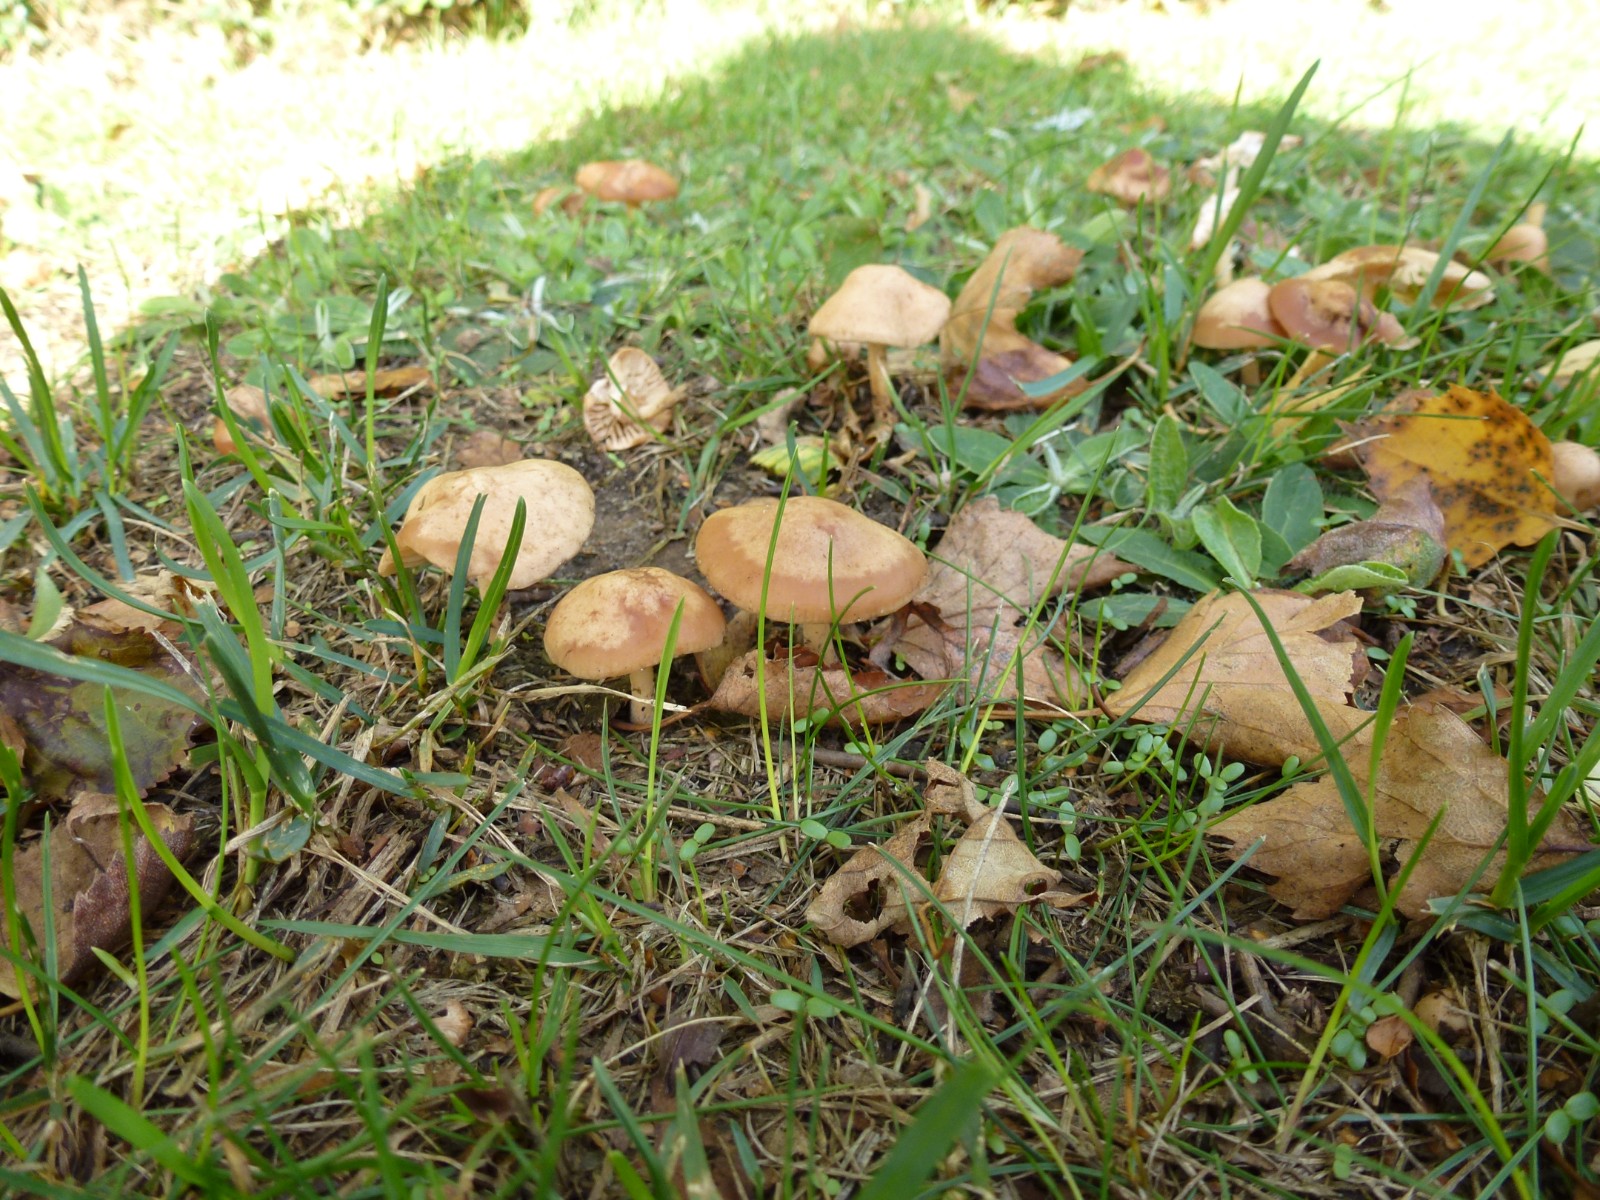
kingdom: Fungi
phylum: Basidiomycota
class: Agaricomycetes
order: Agaricales
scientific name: Agaricales
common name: champignonordenen
